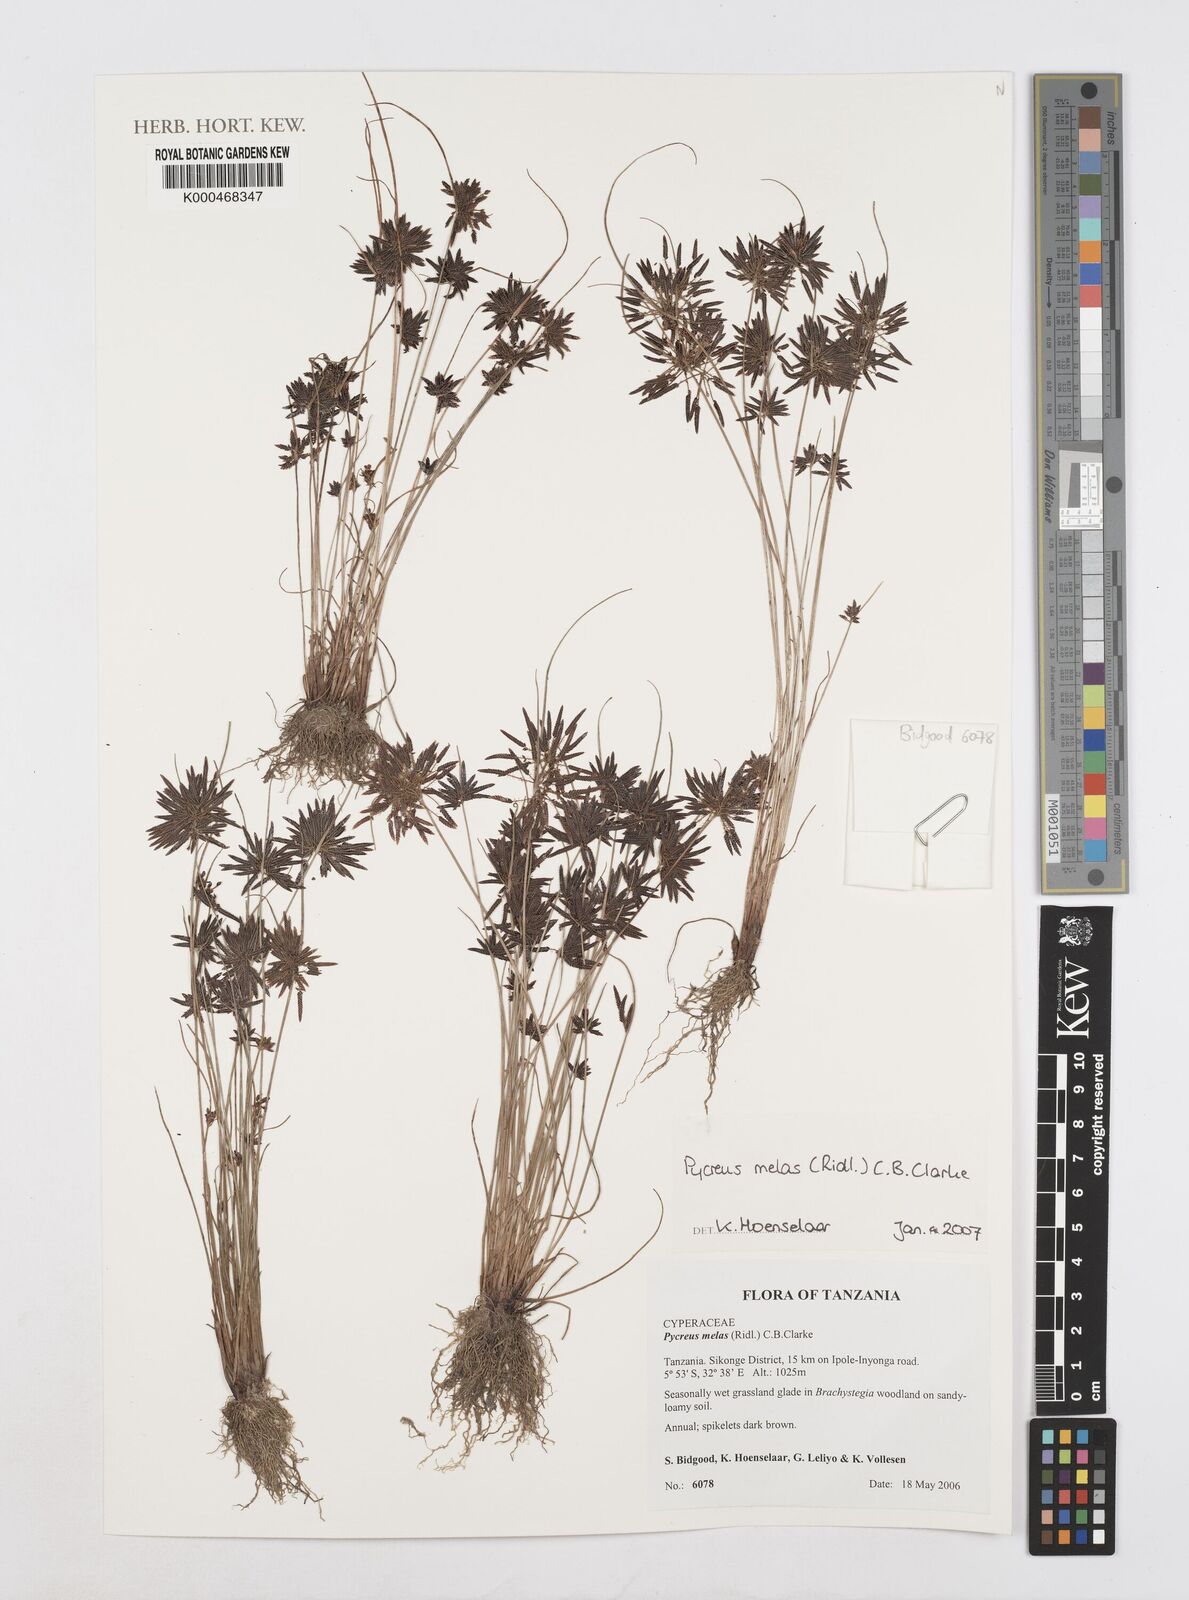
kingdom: Plantae
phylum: Tracheophyta
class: Liliopsida
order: Poales
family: Cyperaceae
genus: Cyperus
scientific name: Cyperus melas
